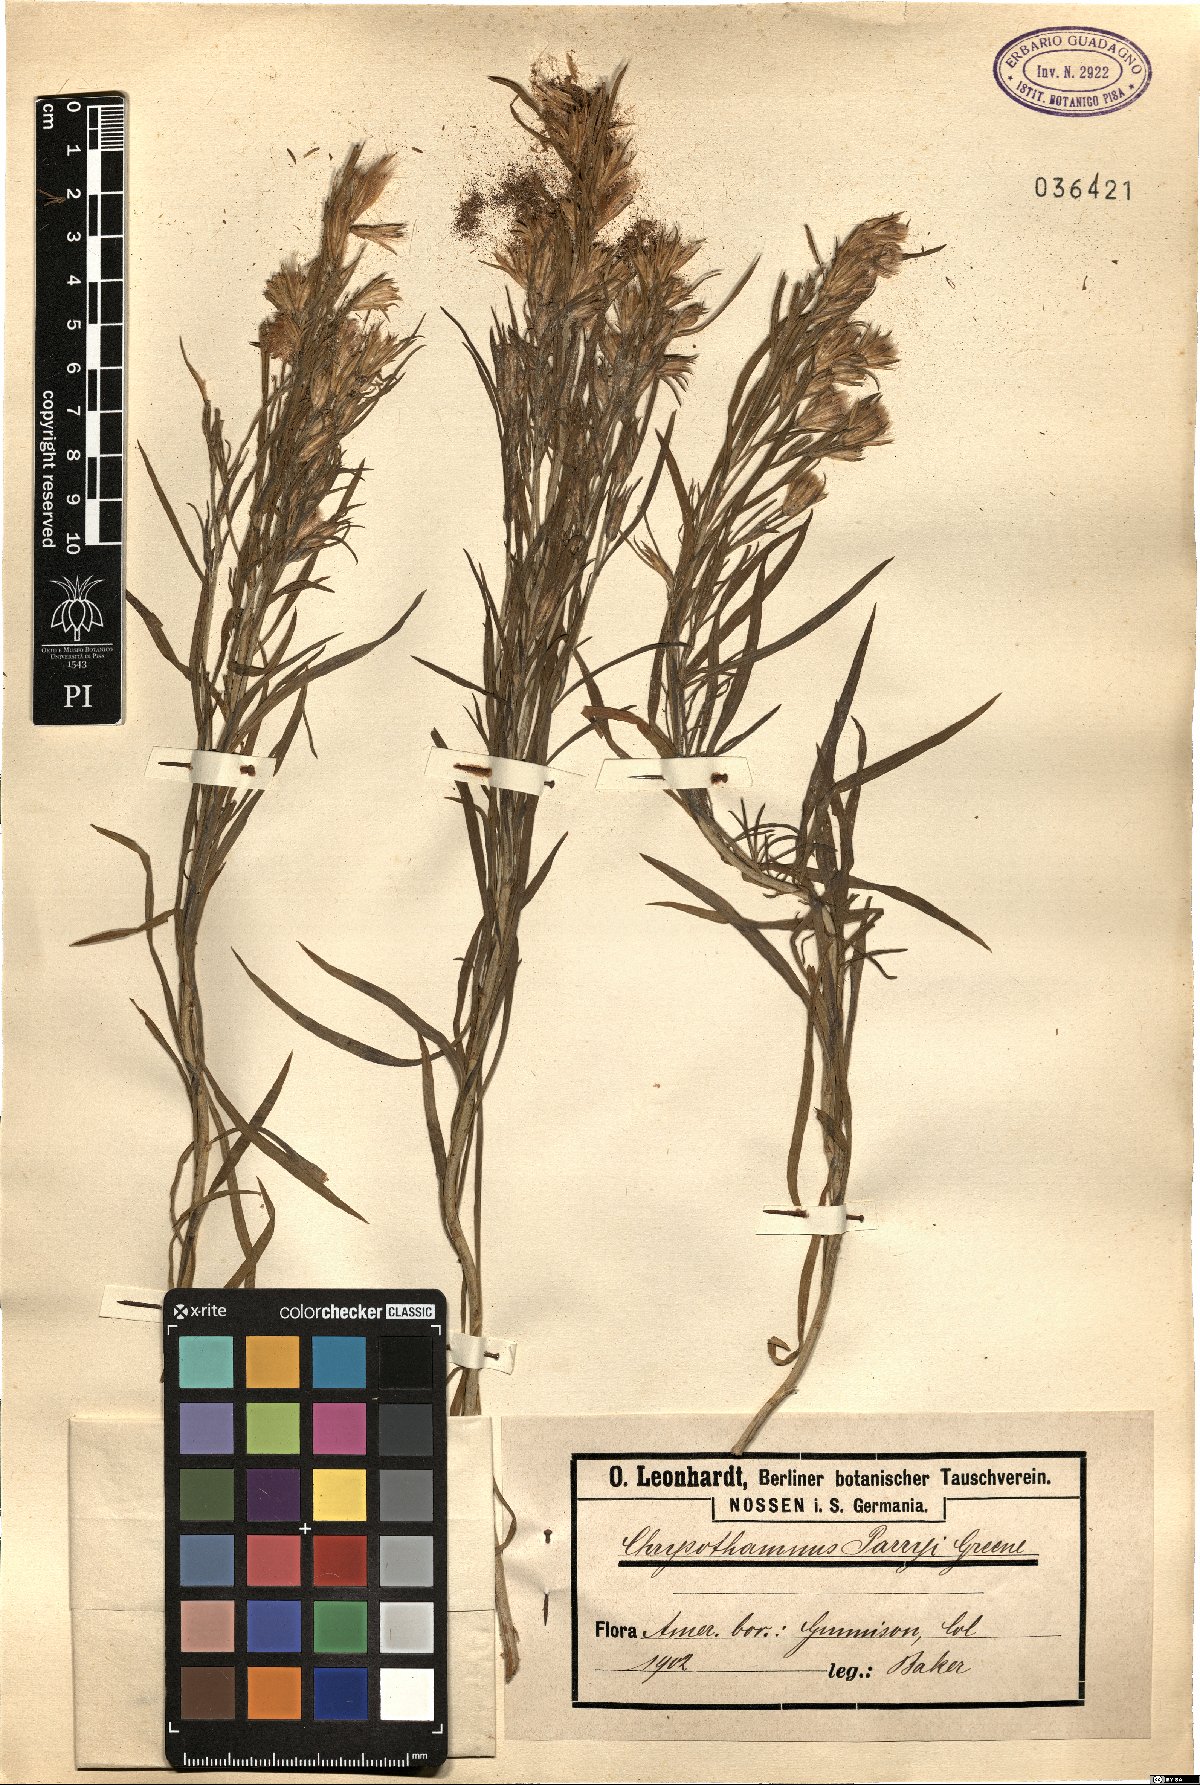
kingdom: Plantae
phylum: Tracheophyta
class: Magnoliopsida
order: Asterales
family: Asteraceae
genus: Ericameria
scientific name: Ericameria parryi
